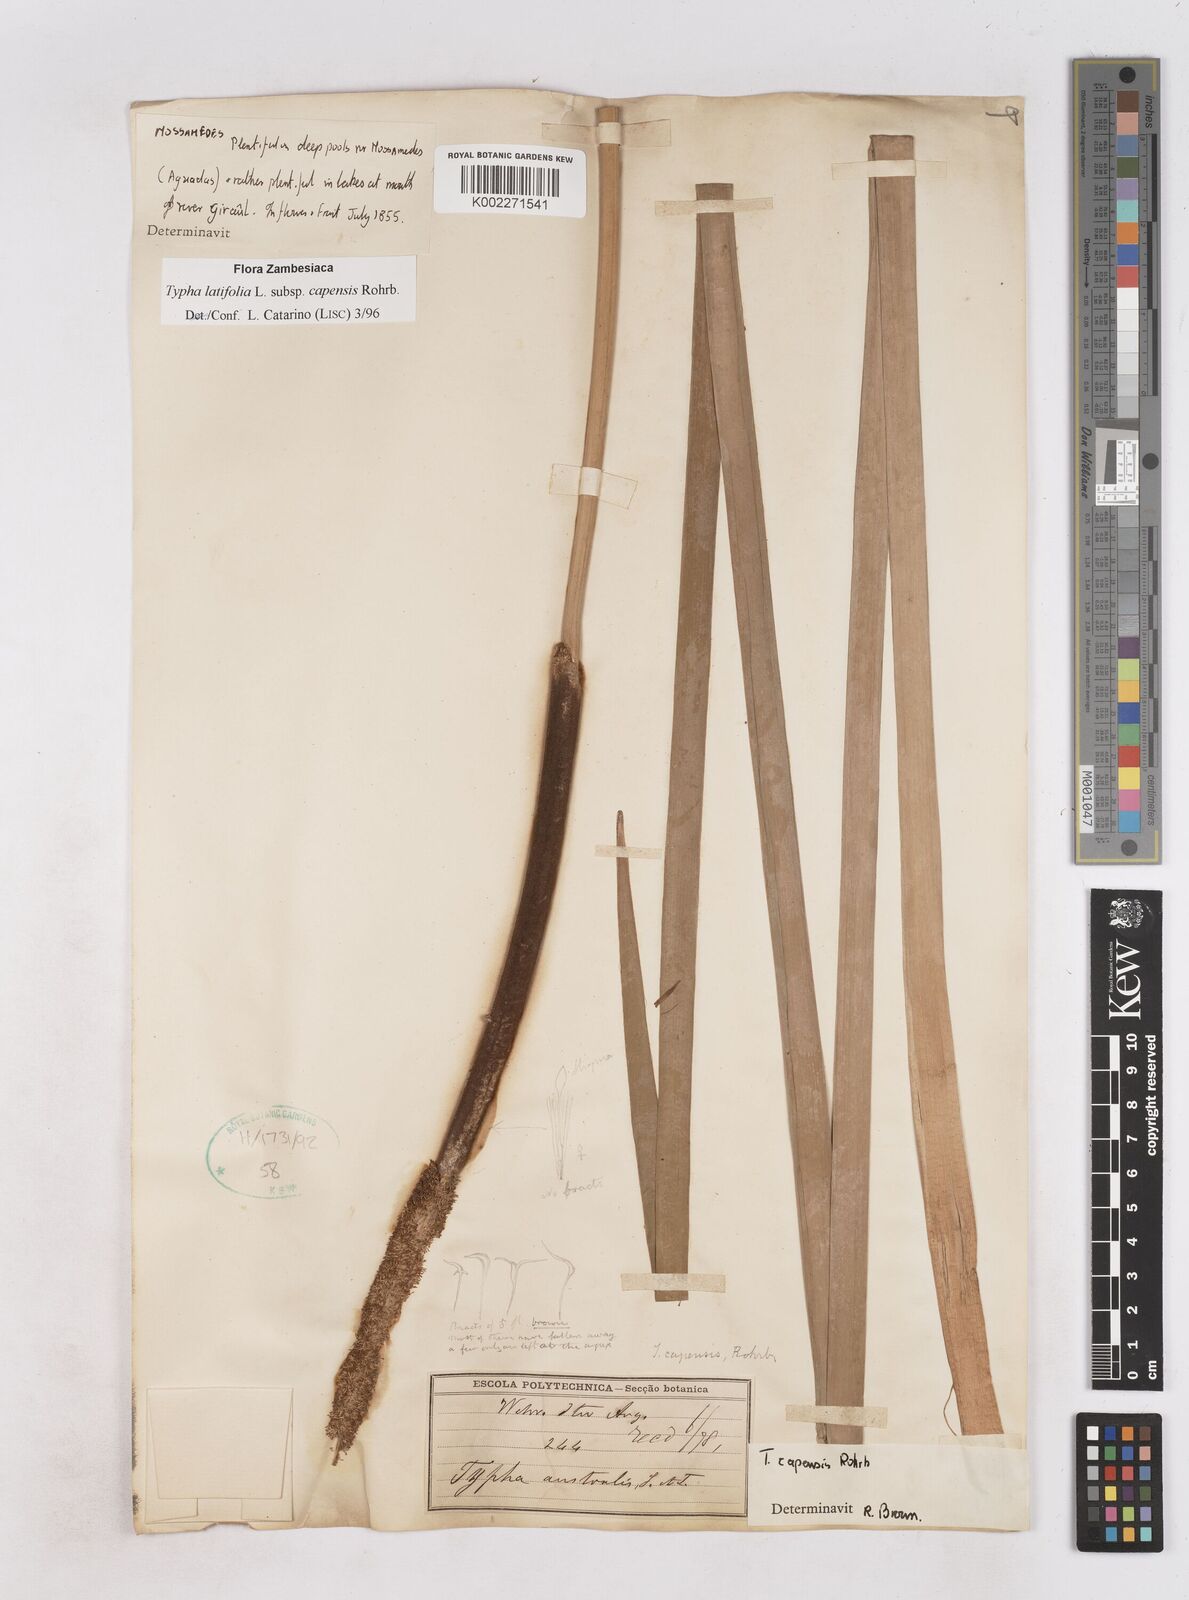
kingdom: Plantae
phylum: Tracheophyta
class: Liliopsida
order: Poales
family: Typhaceae
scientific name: Typhaceae
